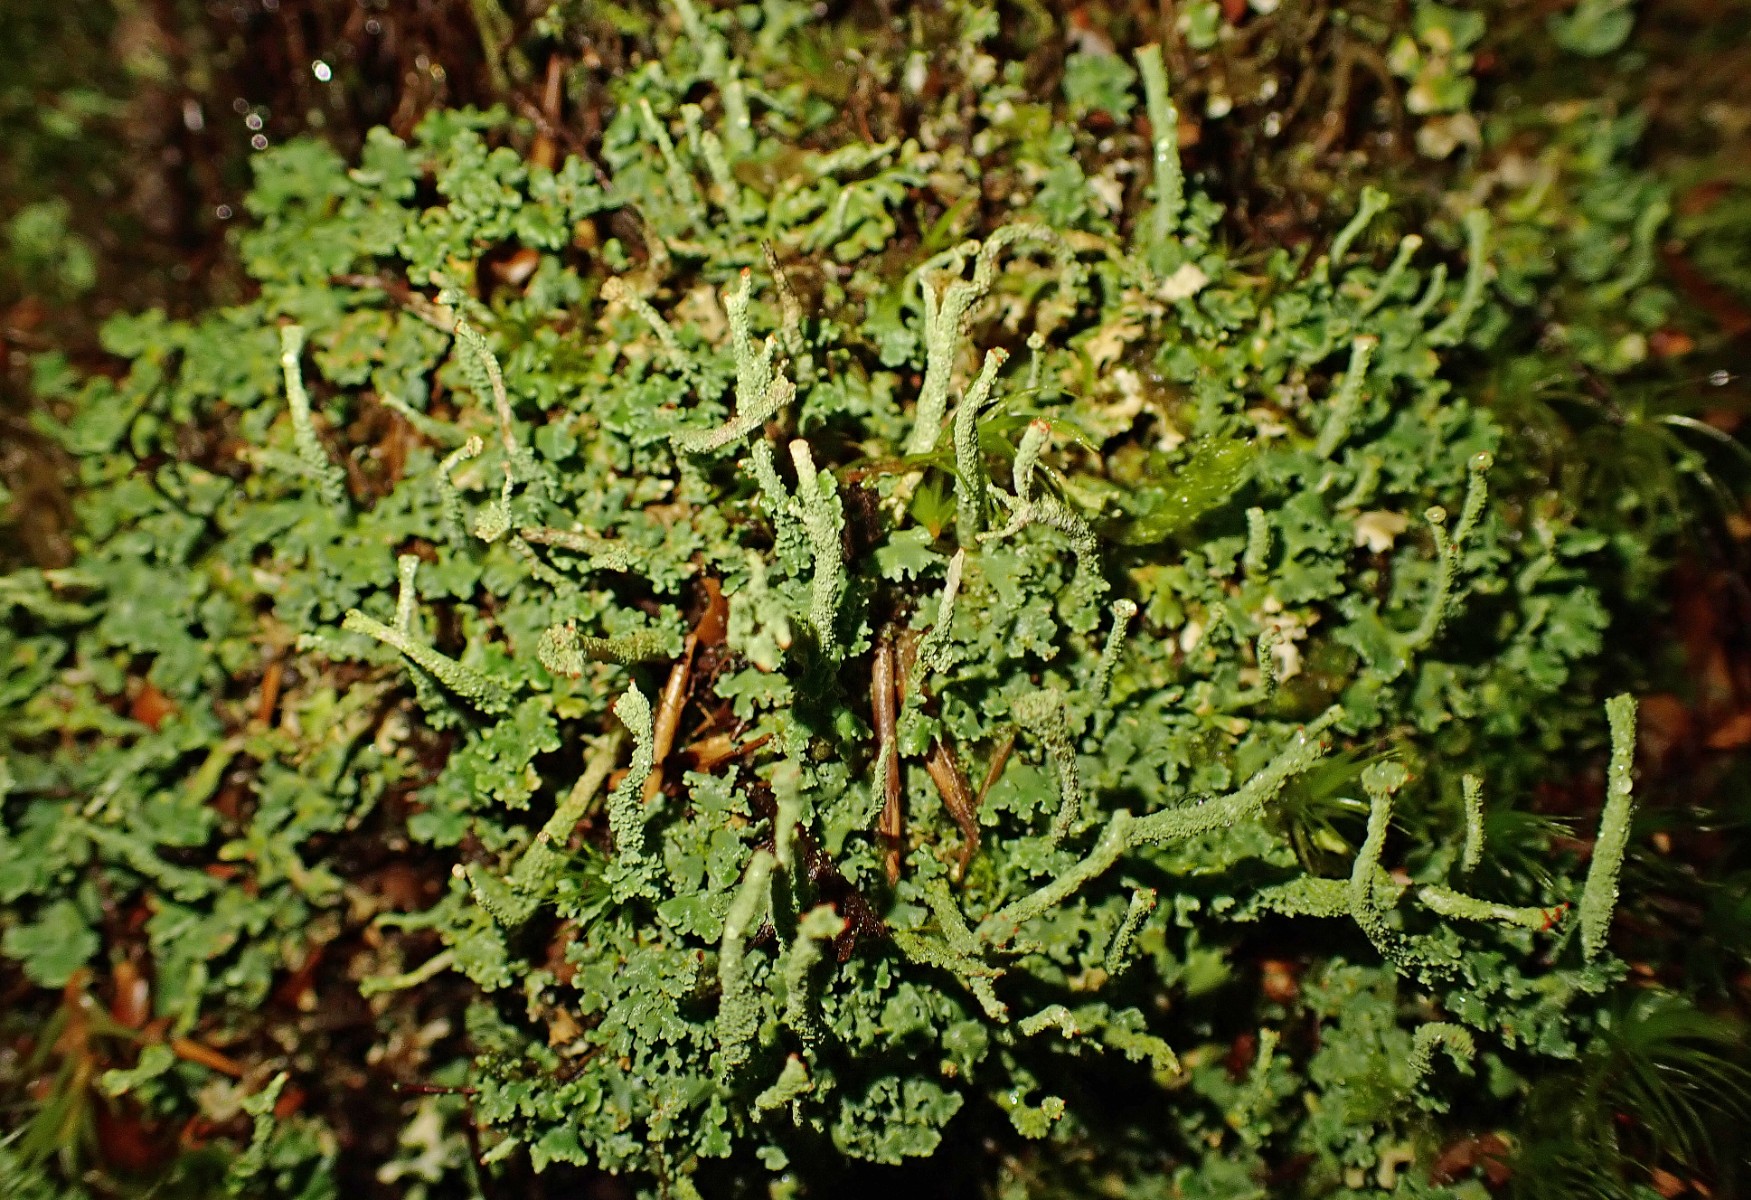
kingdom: Fungi
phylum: Ascomycota
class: Lecanoromycetes
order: Lecanorales
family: Cladoniaceae
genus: Cladonia
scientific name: Cladonia polydactyla
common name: vifte-bægerlav
